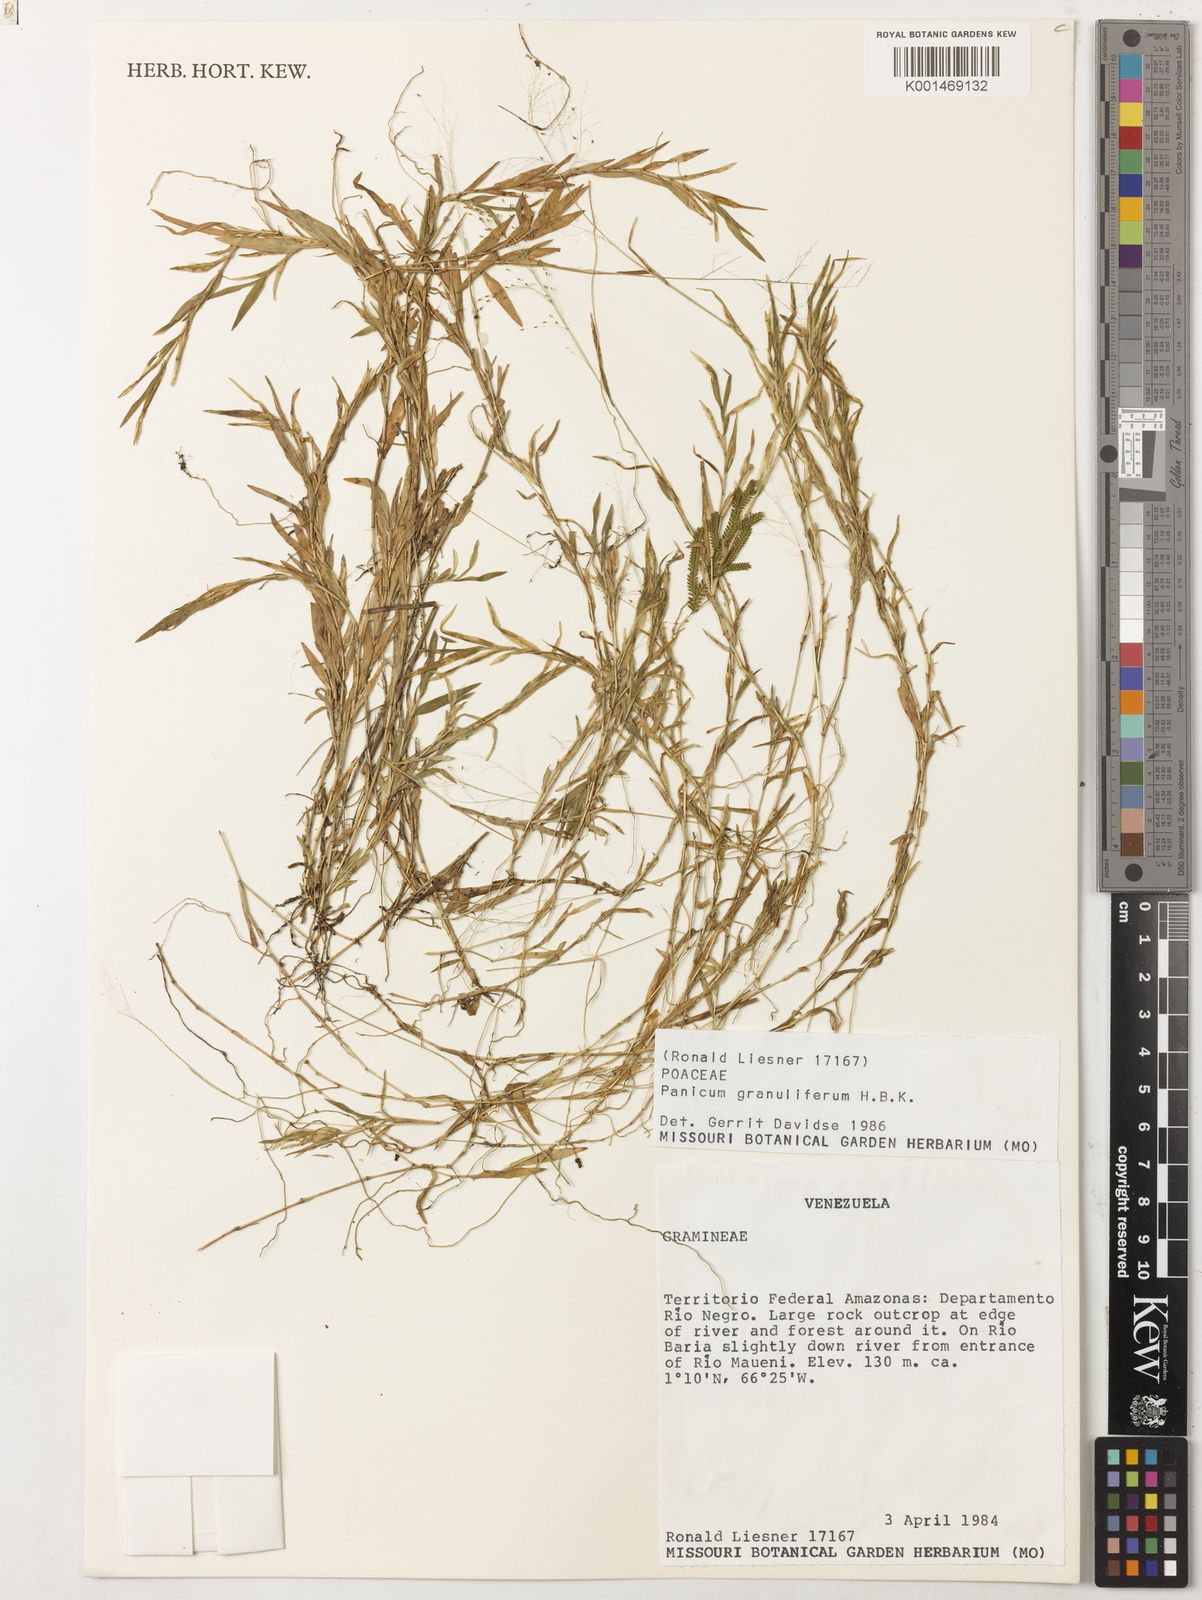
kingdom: Plantae
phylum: Tracheophyta
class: Liliopsida
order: Poales
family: Poaceae
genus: Trichanthecium
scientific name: Trichanthecium granuliferum
